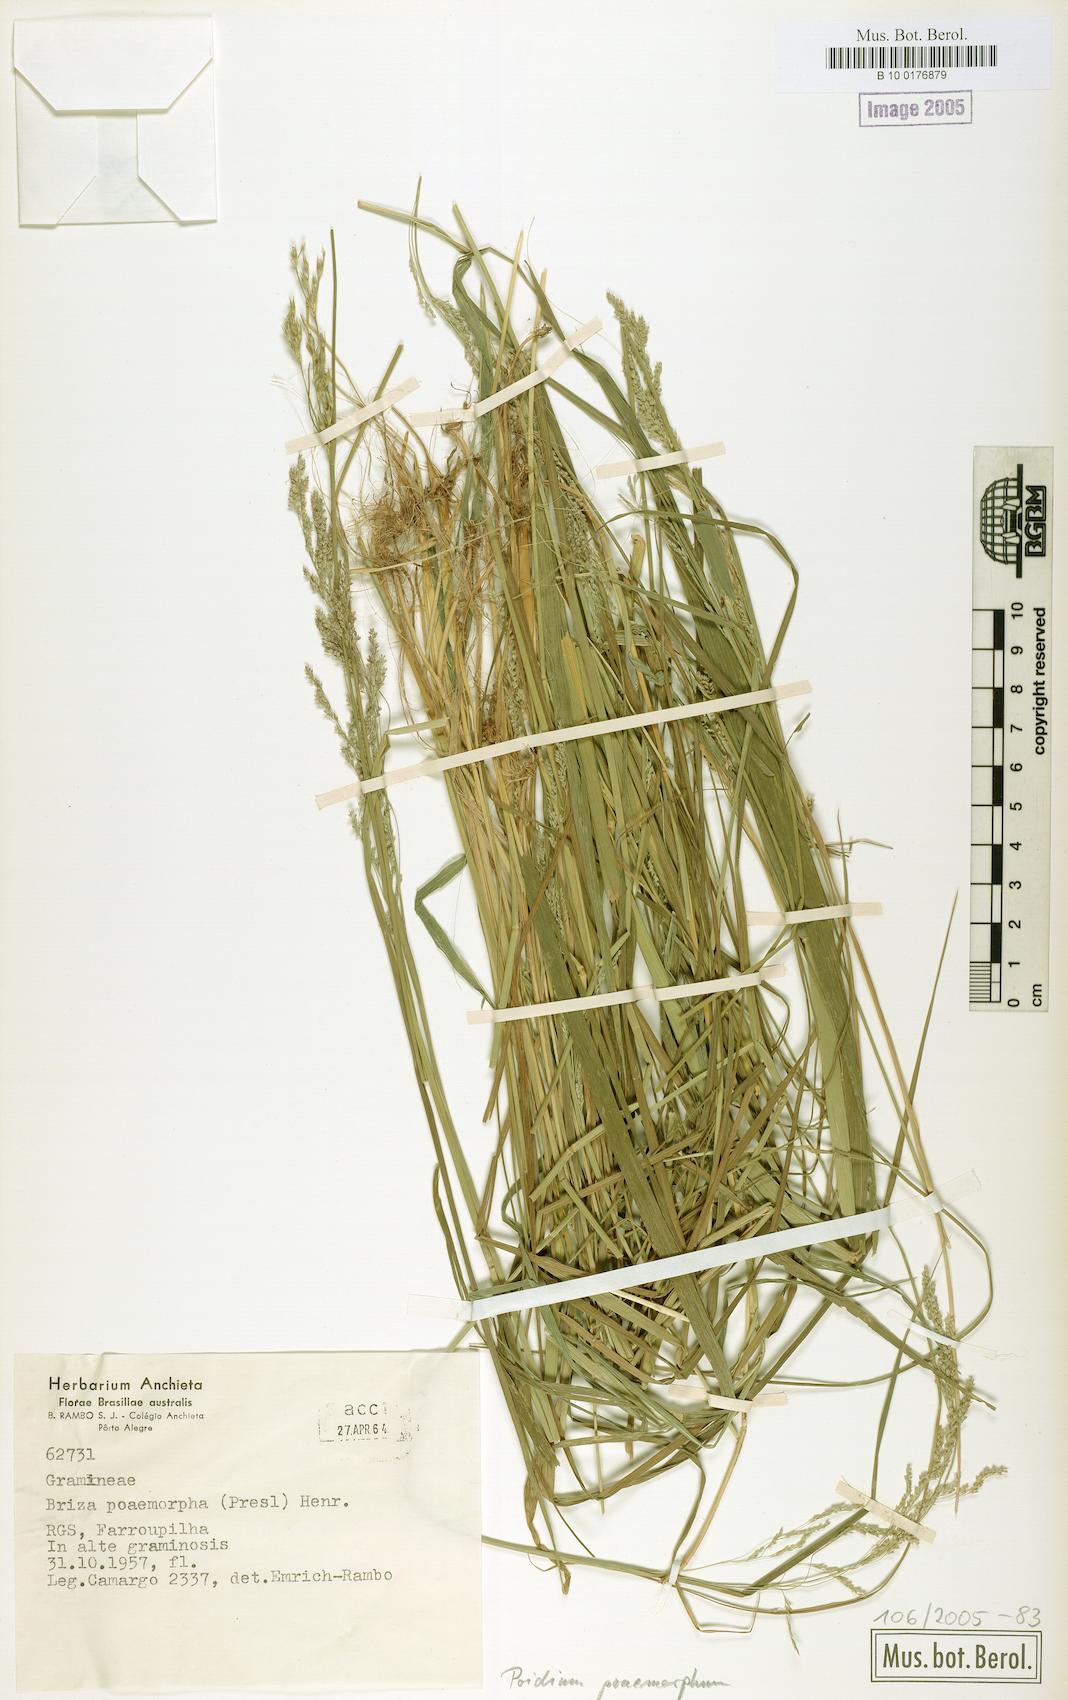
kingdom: Plantae
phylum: Tracheophyta
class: Liliopsida
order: Poales
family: Poaceae
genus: Chascolytrum
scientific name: Chascolytrum poomorphum
